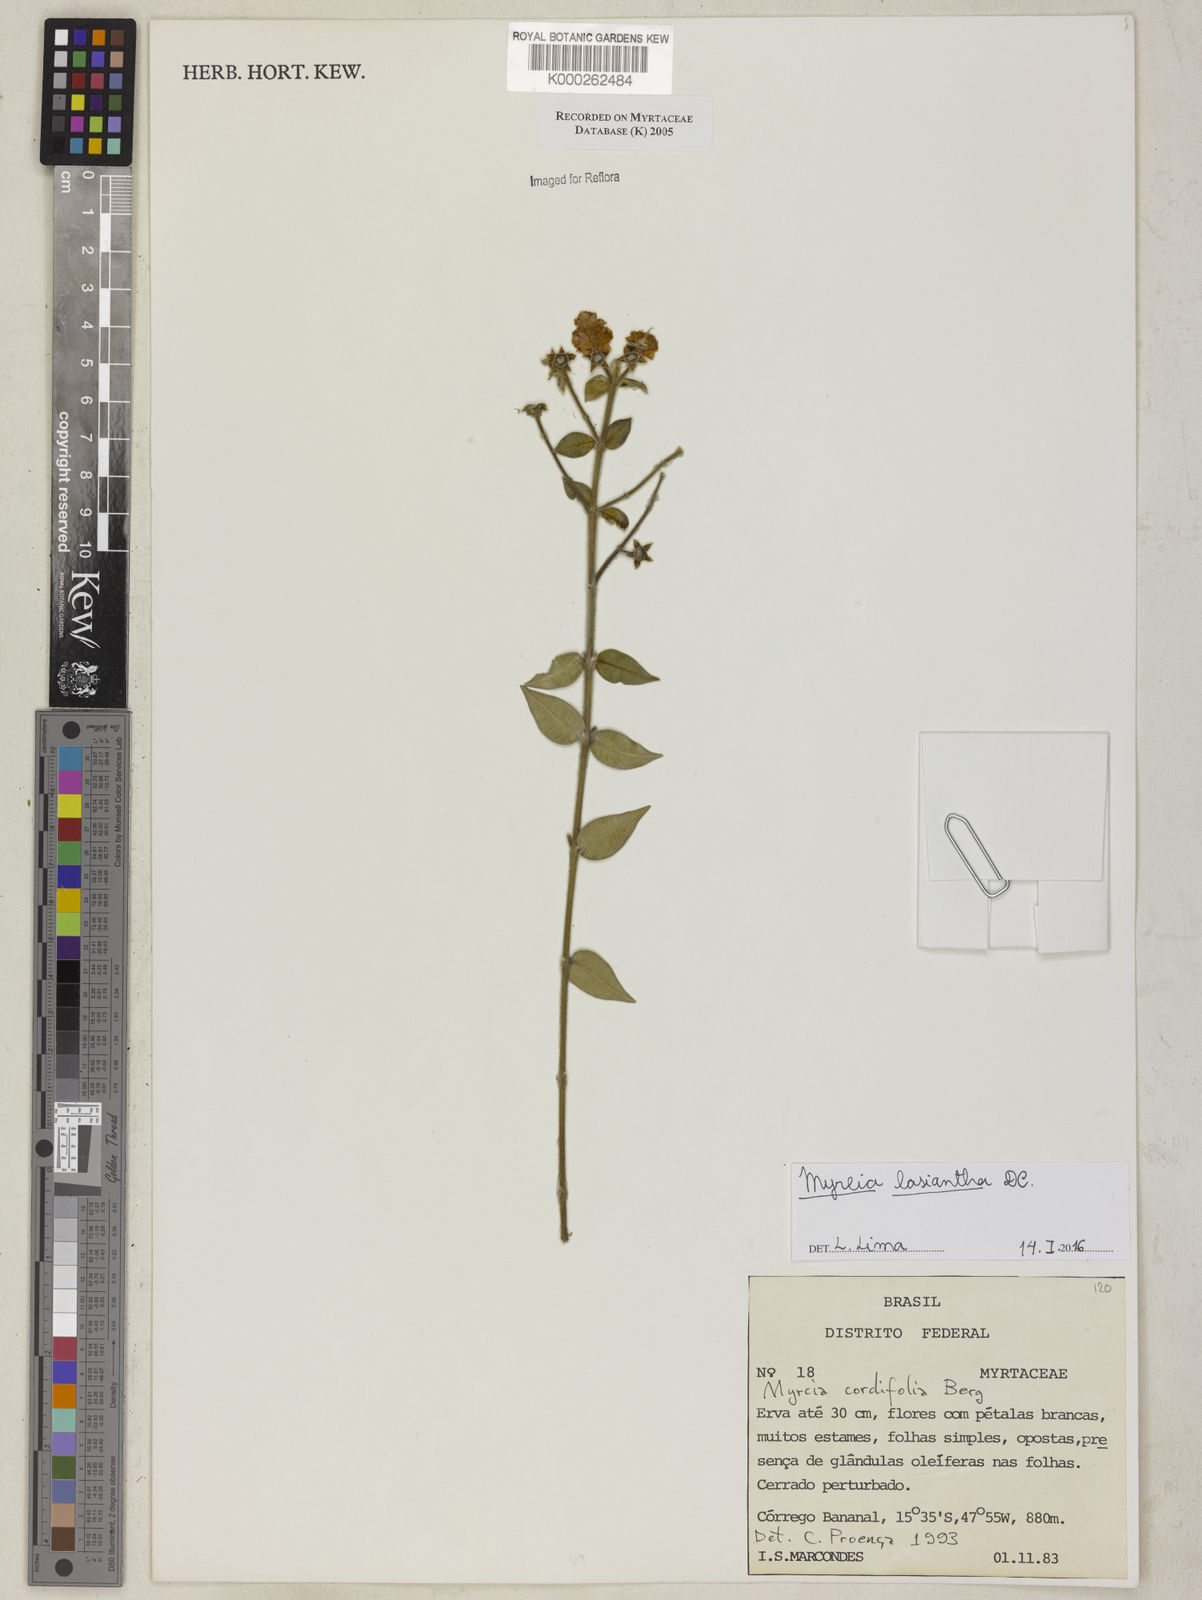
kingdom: Plantae
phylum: Tracheophyta
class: Magnoliopsida
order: Myrtales
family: Myrtaceae
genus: Myrcia
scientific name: Myrcia lasiantha
